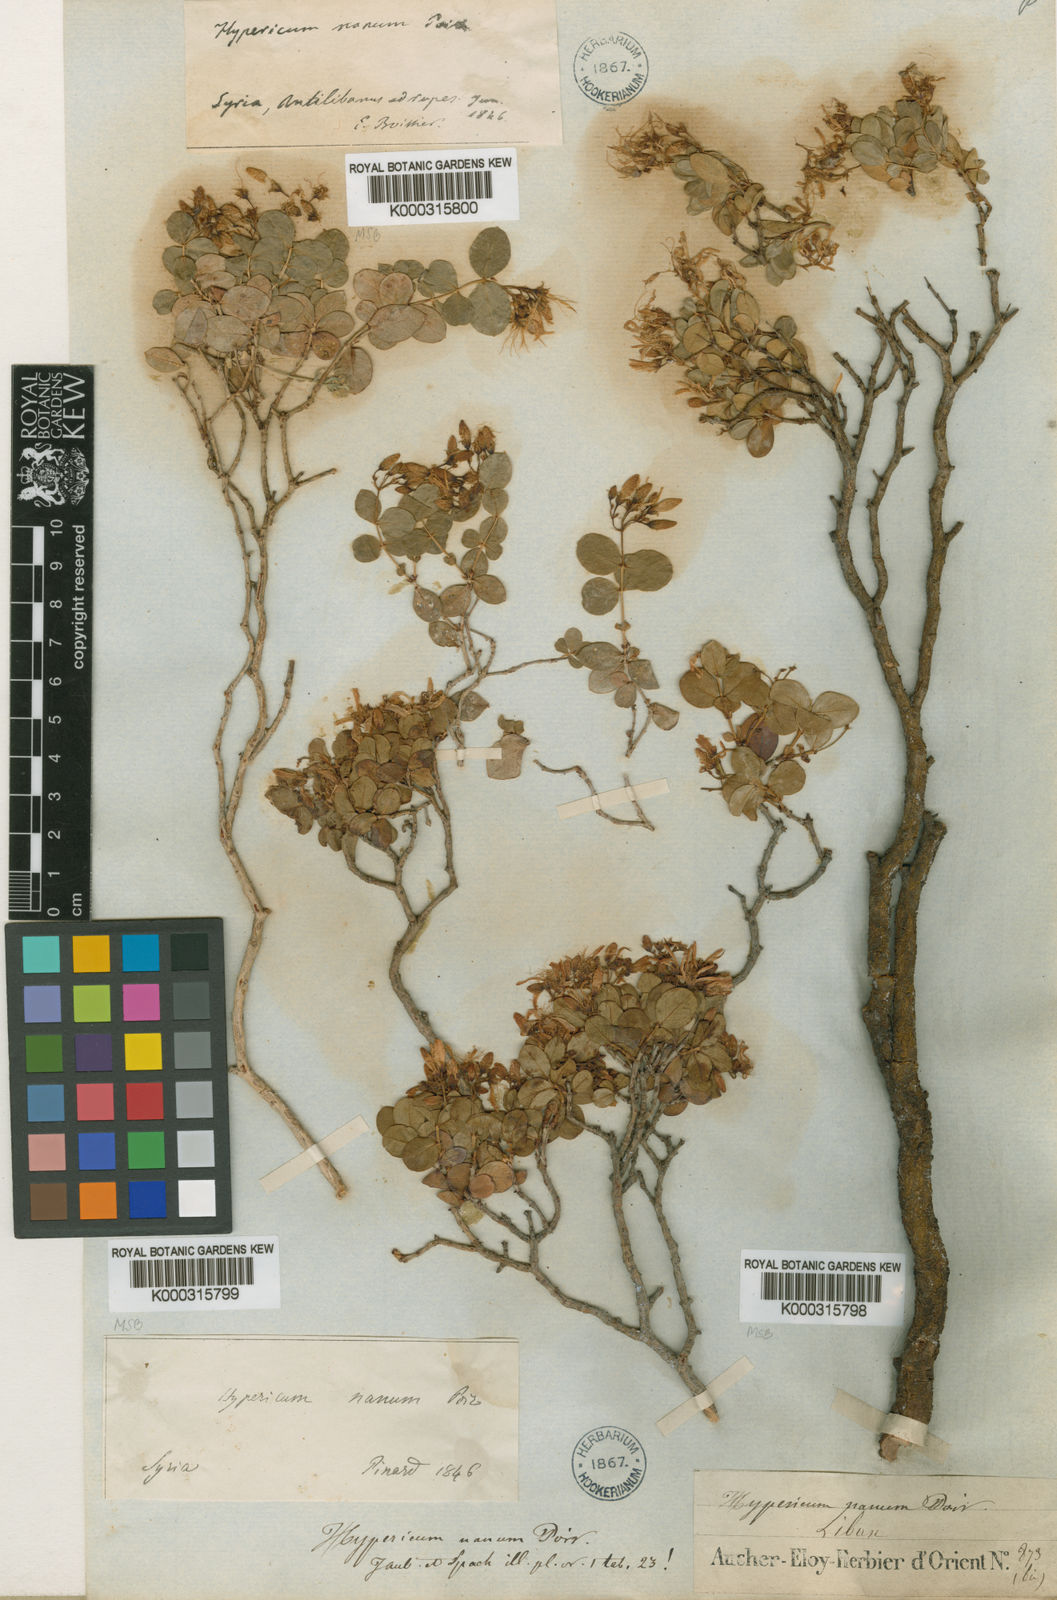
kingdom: Plantae
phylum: Tracheophyta
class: Magnoliopsida
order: Malpighiales
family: Hypericaceae
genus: Hypericum
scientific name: Hypericum nanum
